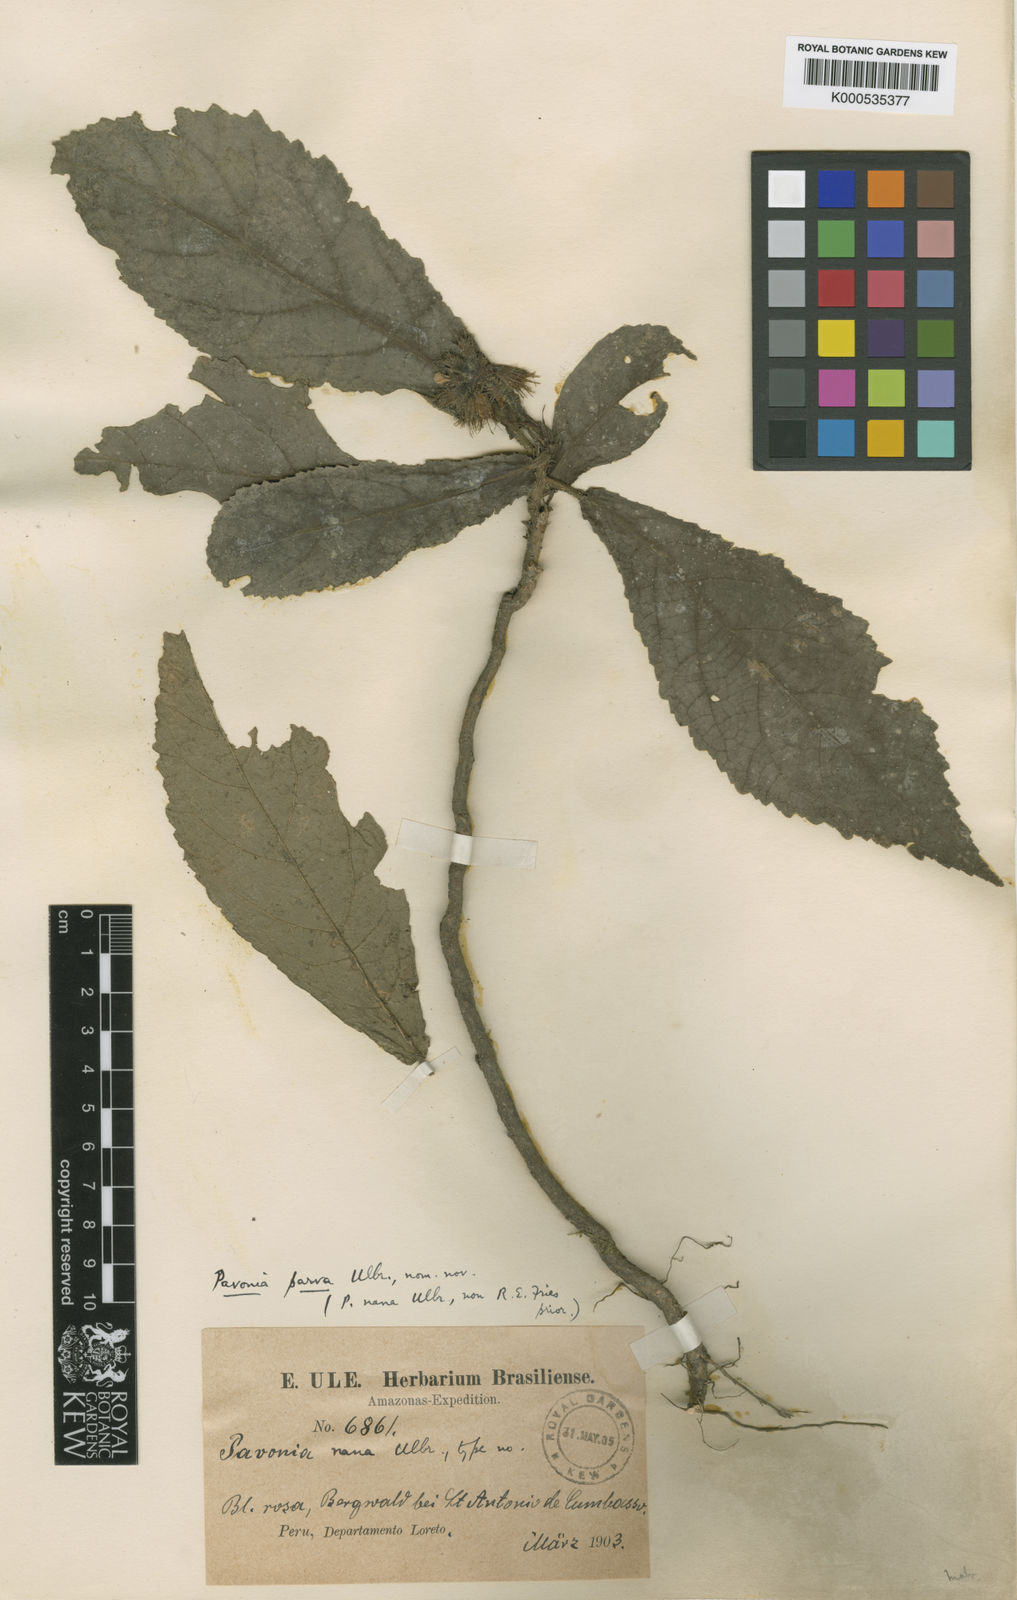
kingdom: Plantae
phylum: Tracheophyta
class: Magnoliopsida
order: Malvales
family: Malvaceae
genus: Pavonia
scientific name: Pavonia castaneifolia
